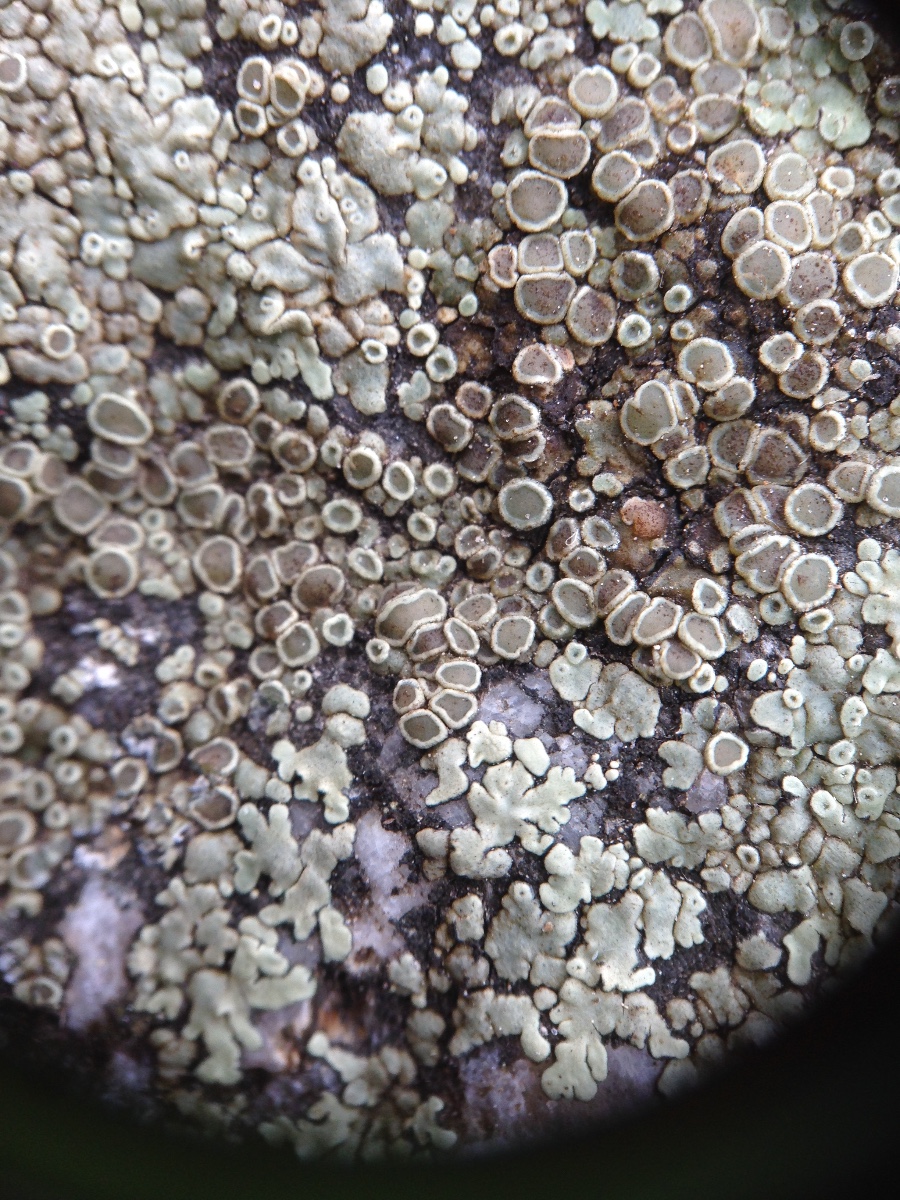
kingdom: Fungi
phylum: Ascomycota
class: Lecanoromycetes
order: Lecanorales
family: Lecanoraceae
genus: Protoparmeliopsis
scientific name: Protoparmeliopsis muralis
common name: randfliget kantskivelav
